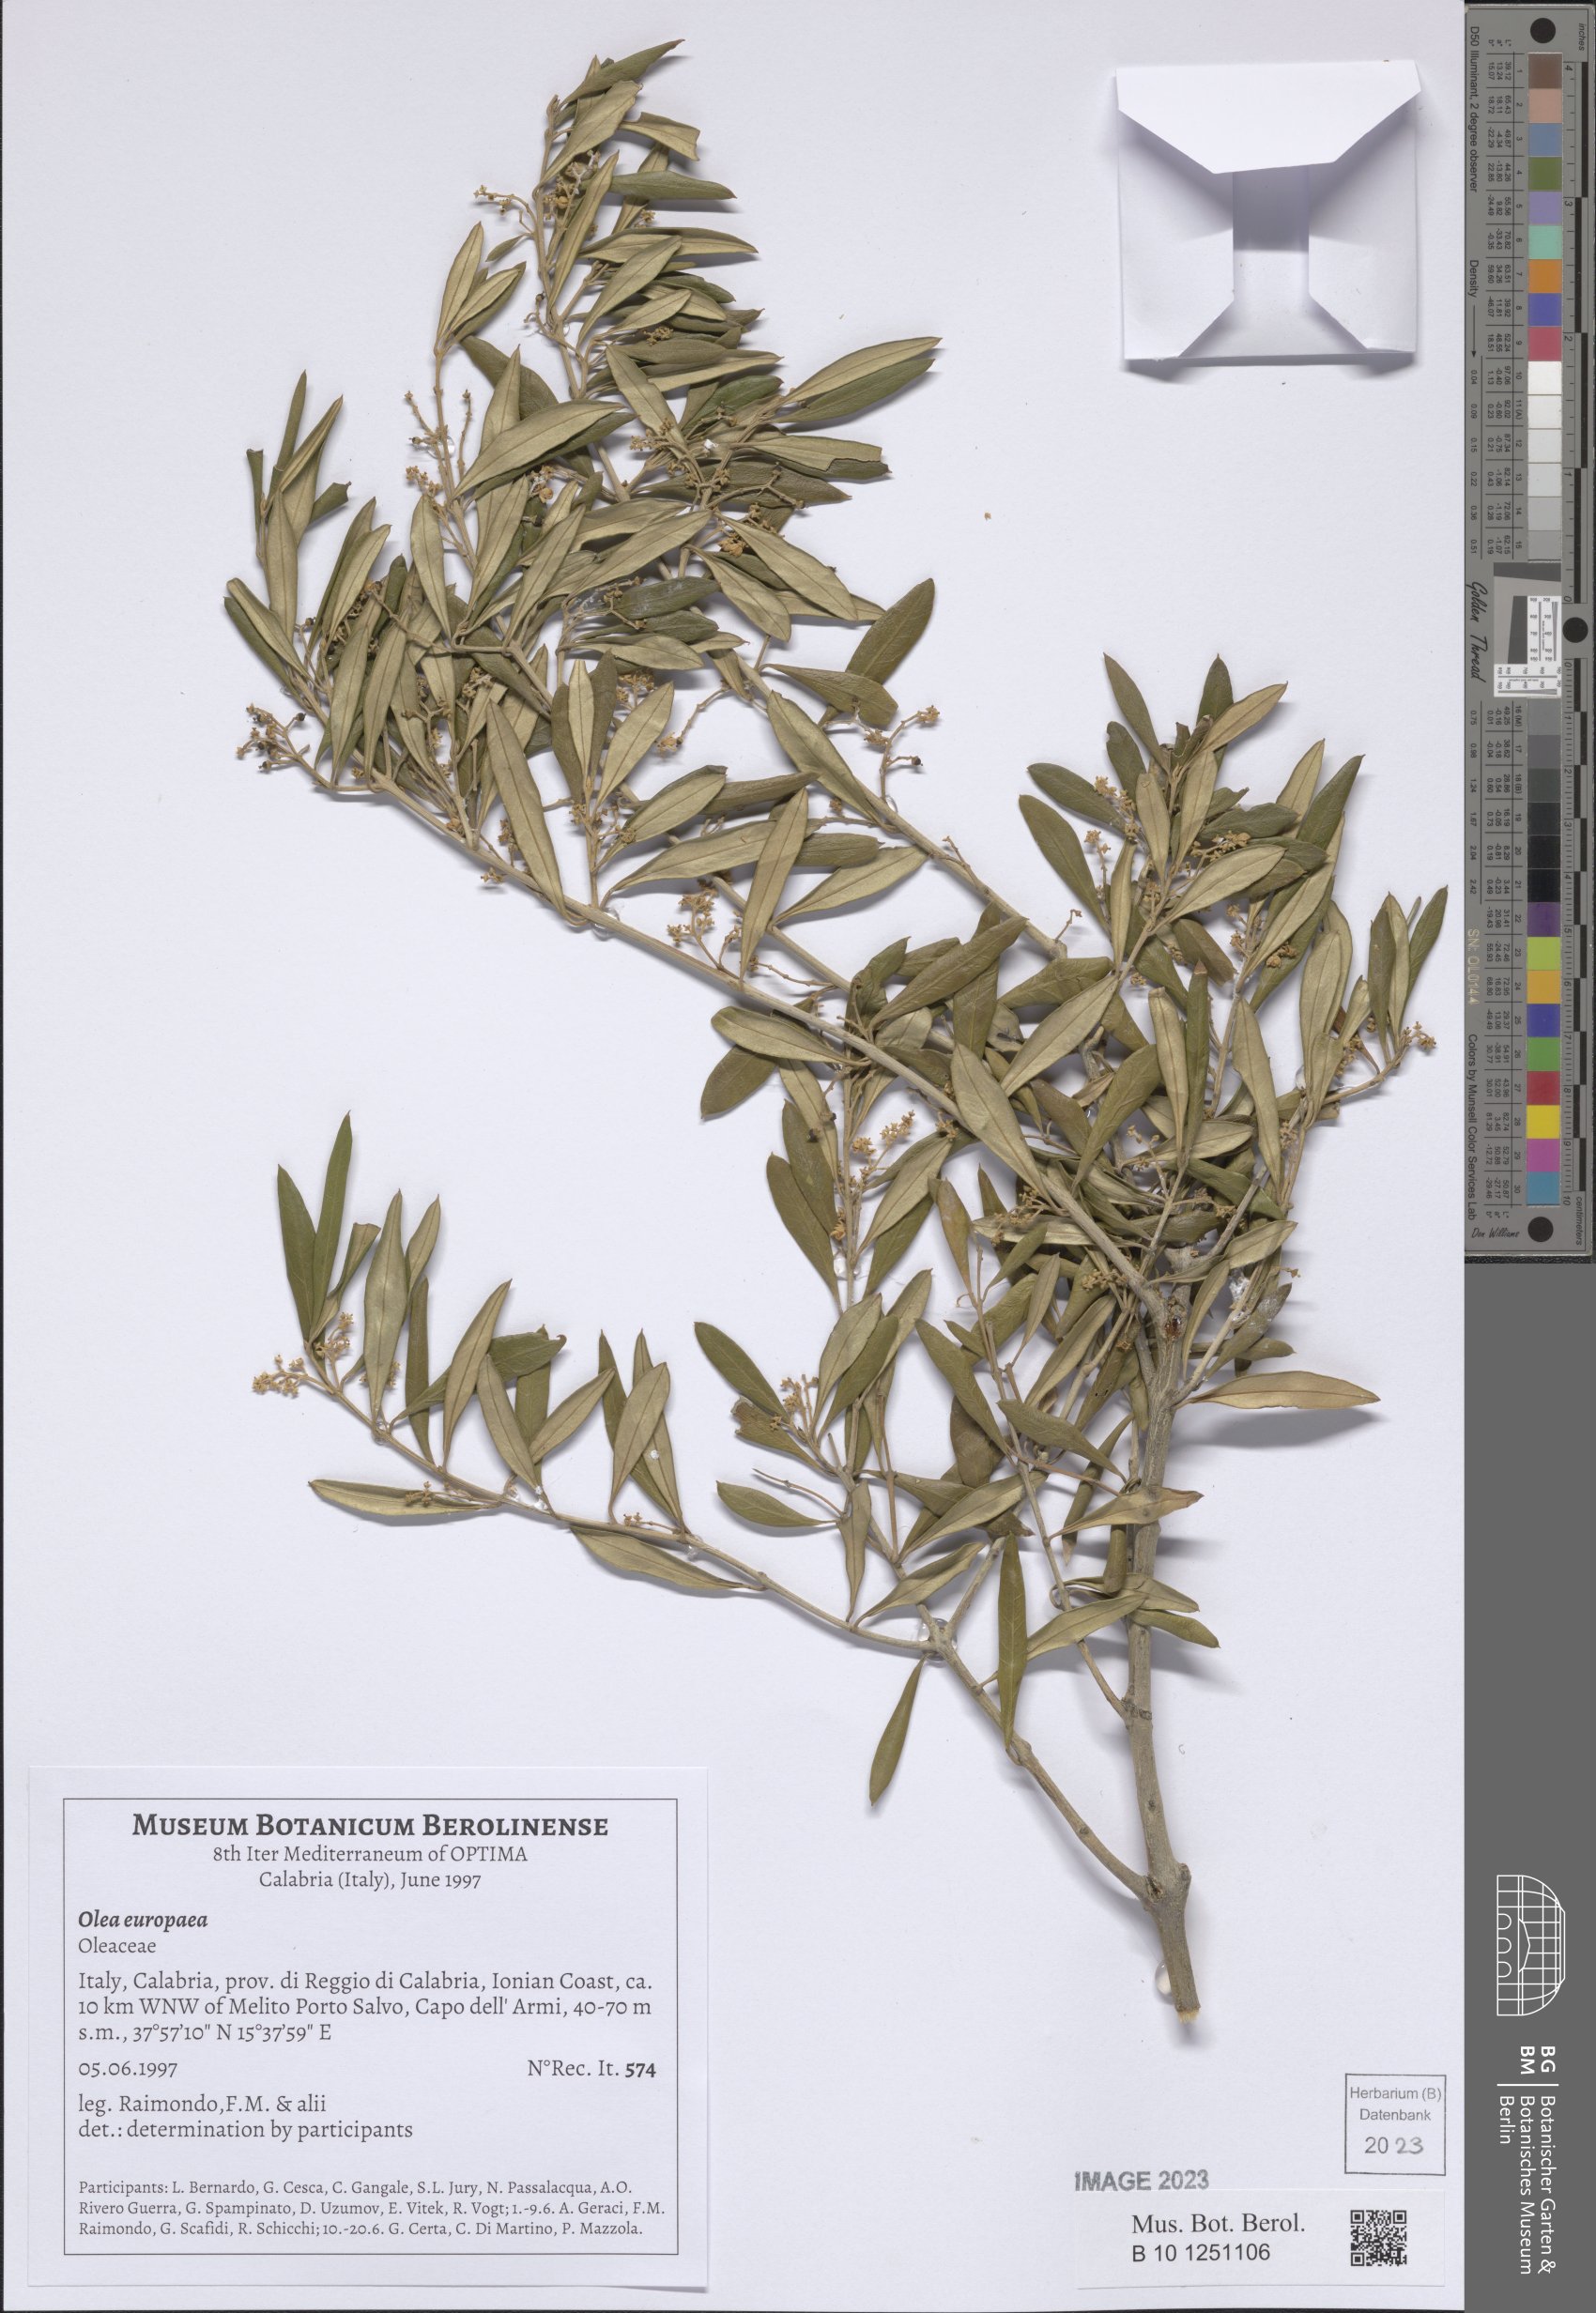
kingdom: Plantae
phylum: Tracheophyta
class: Magnoliopsida
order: Lamiales
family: Oleaceae
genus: Olea
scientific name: Olea europaea
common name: Olive
